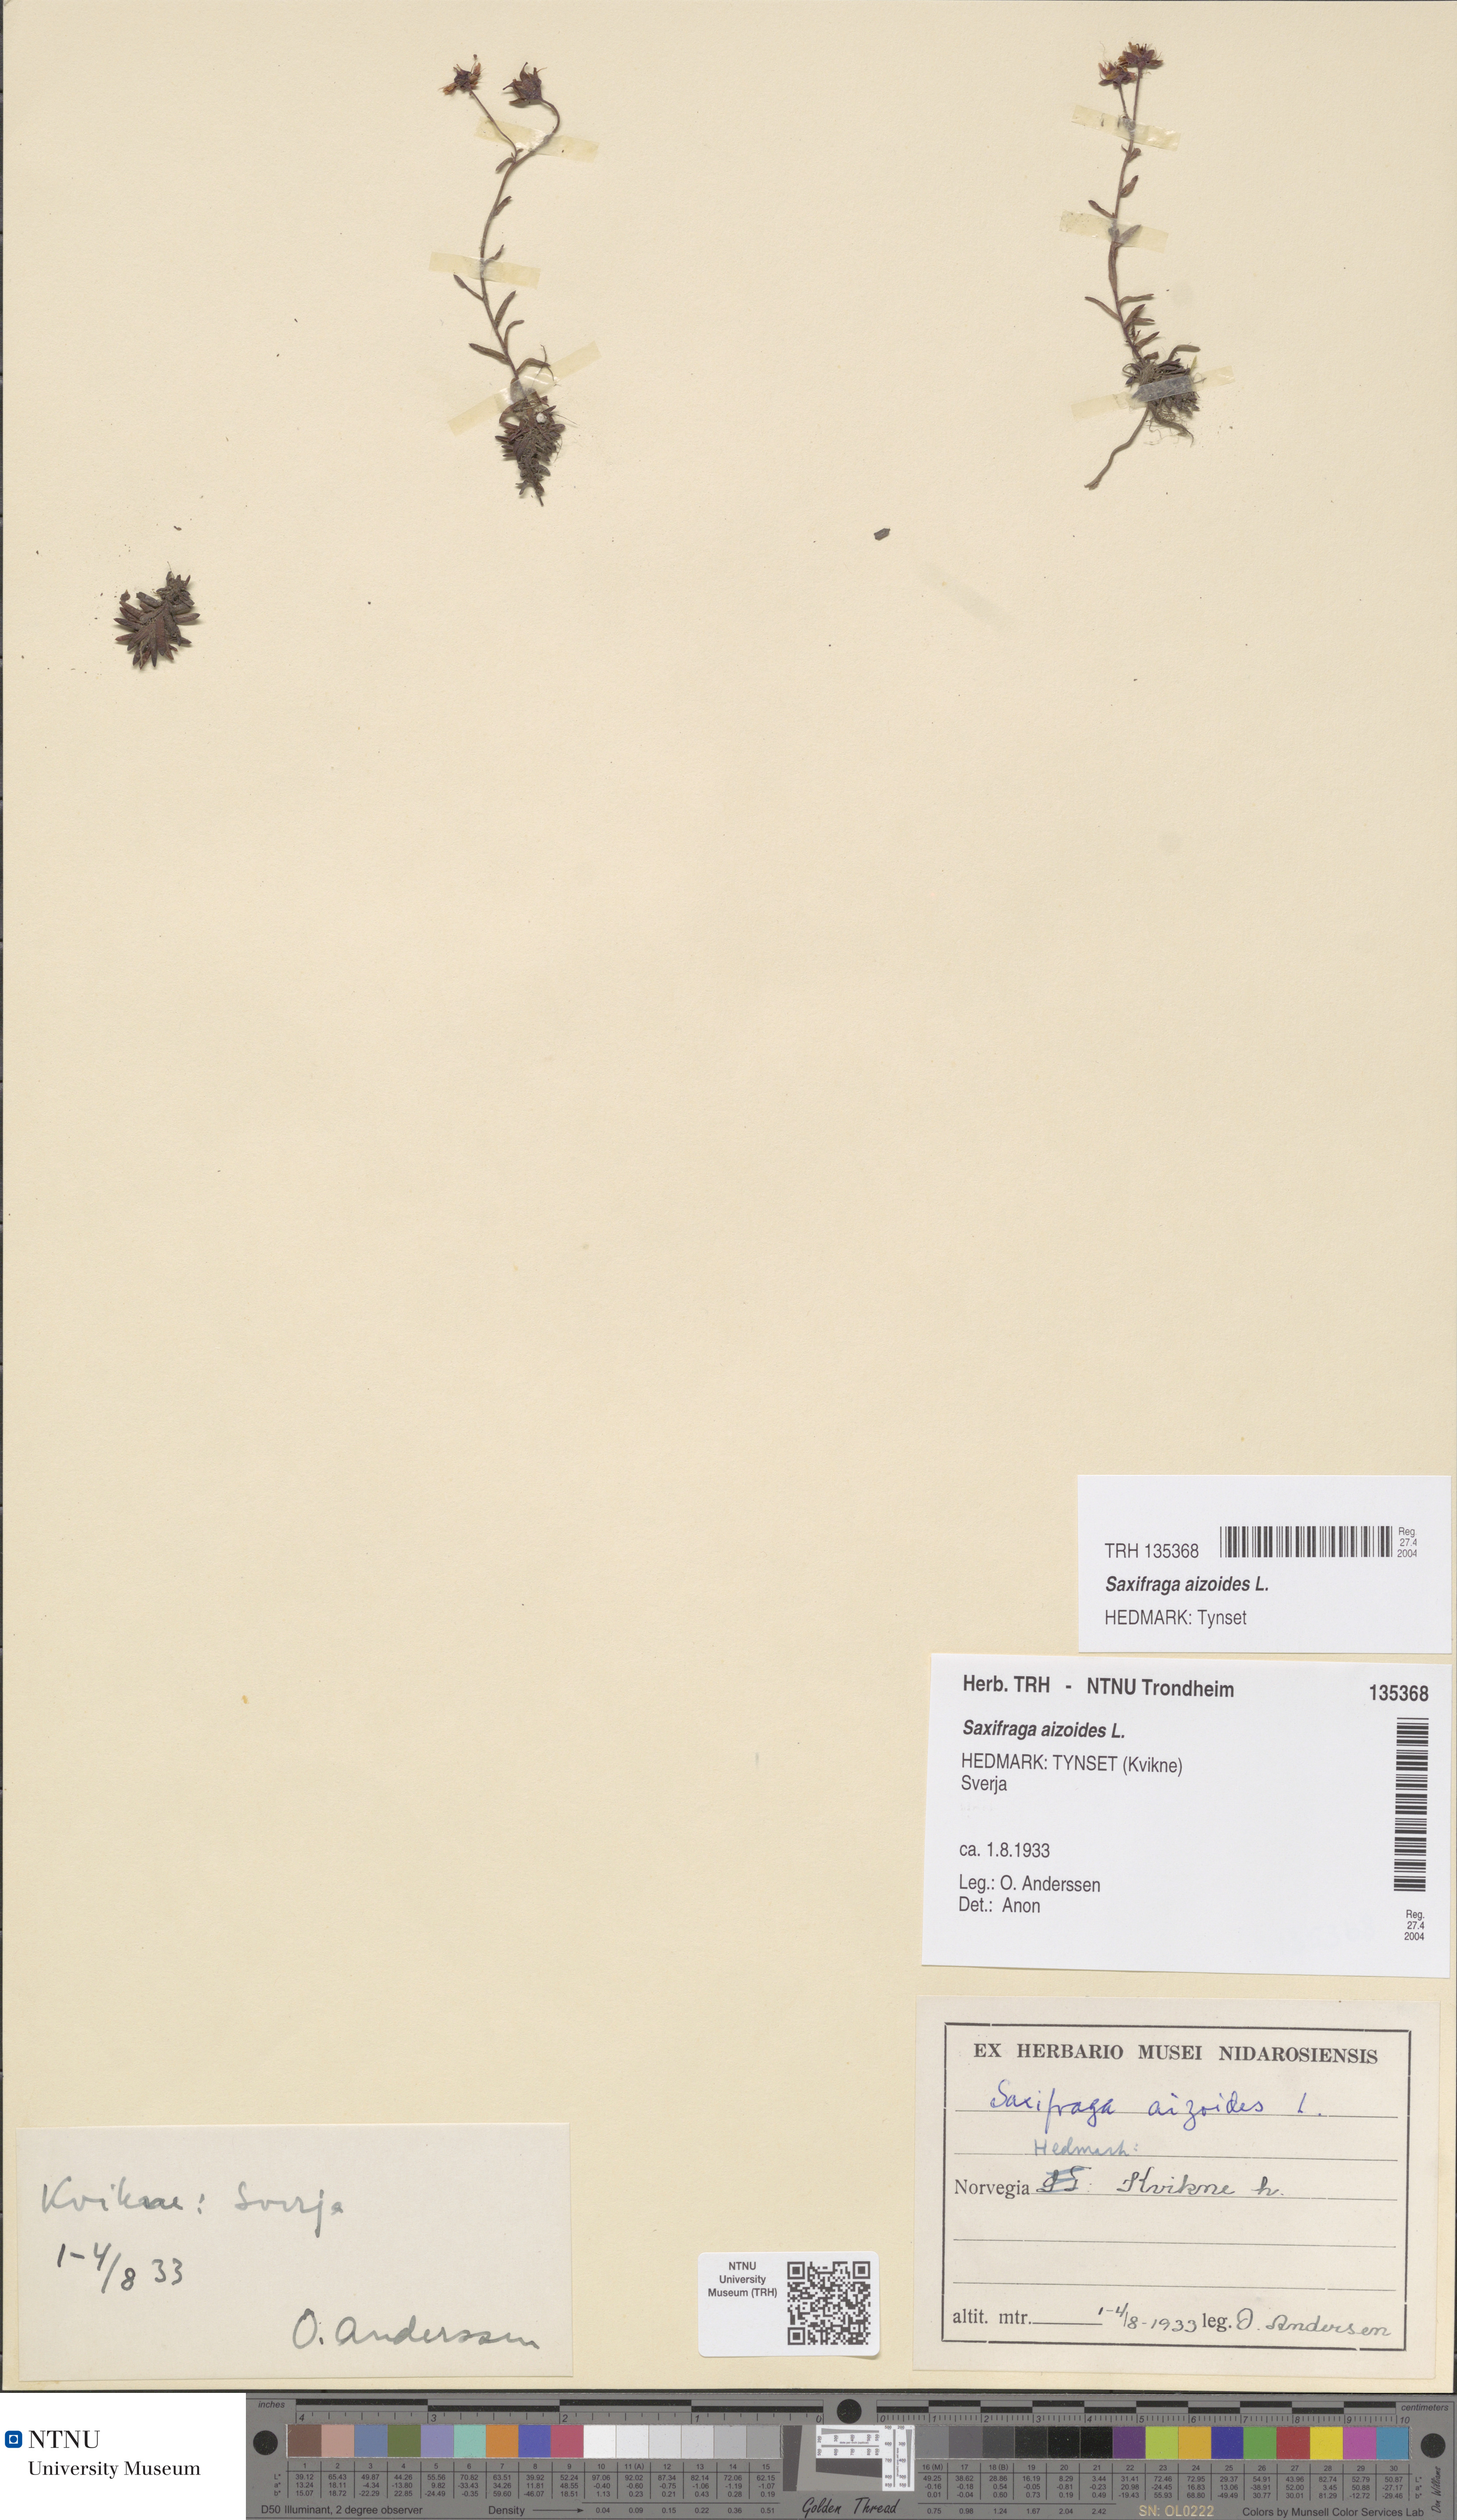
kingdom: Plantae
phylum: Tracheophyta
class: Magnoliopsida
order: Saxifragales
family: Saxifragaceae
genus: Saxifraga
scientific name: Saxifraga aizoides
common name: Yellow mountain saxifrage
